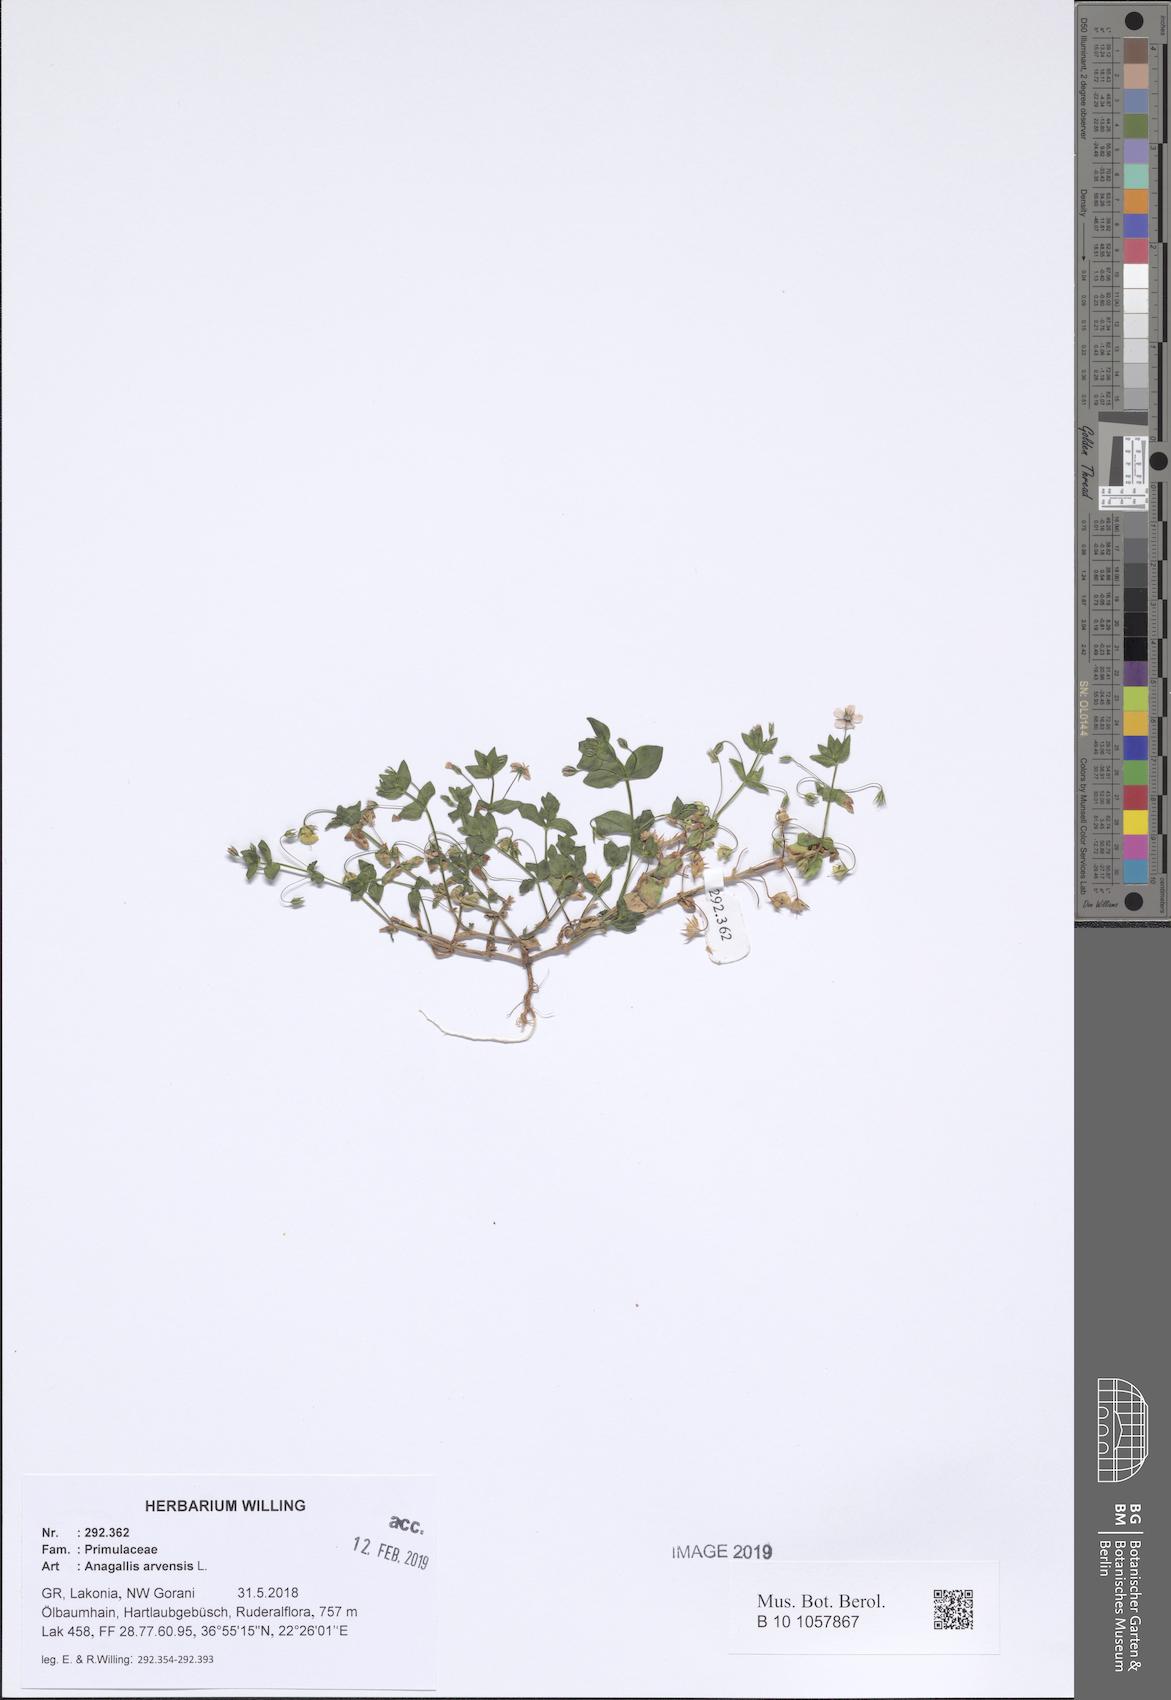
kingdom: Plantae
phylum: Tracheophyta
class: Magnoliopsida
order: Ericales
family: Primulaceae
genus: Lysimachia
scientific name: Lysimachia arvensis
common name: Scarlet pimpernel
